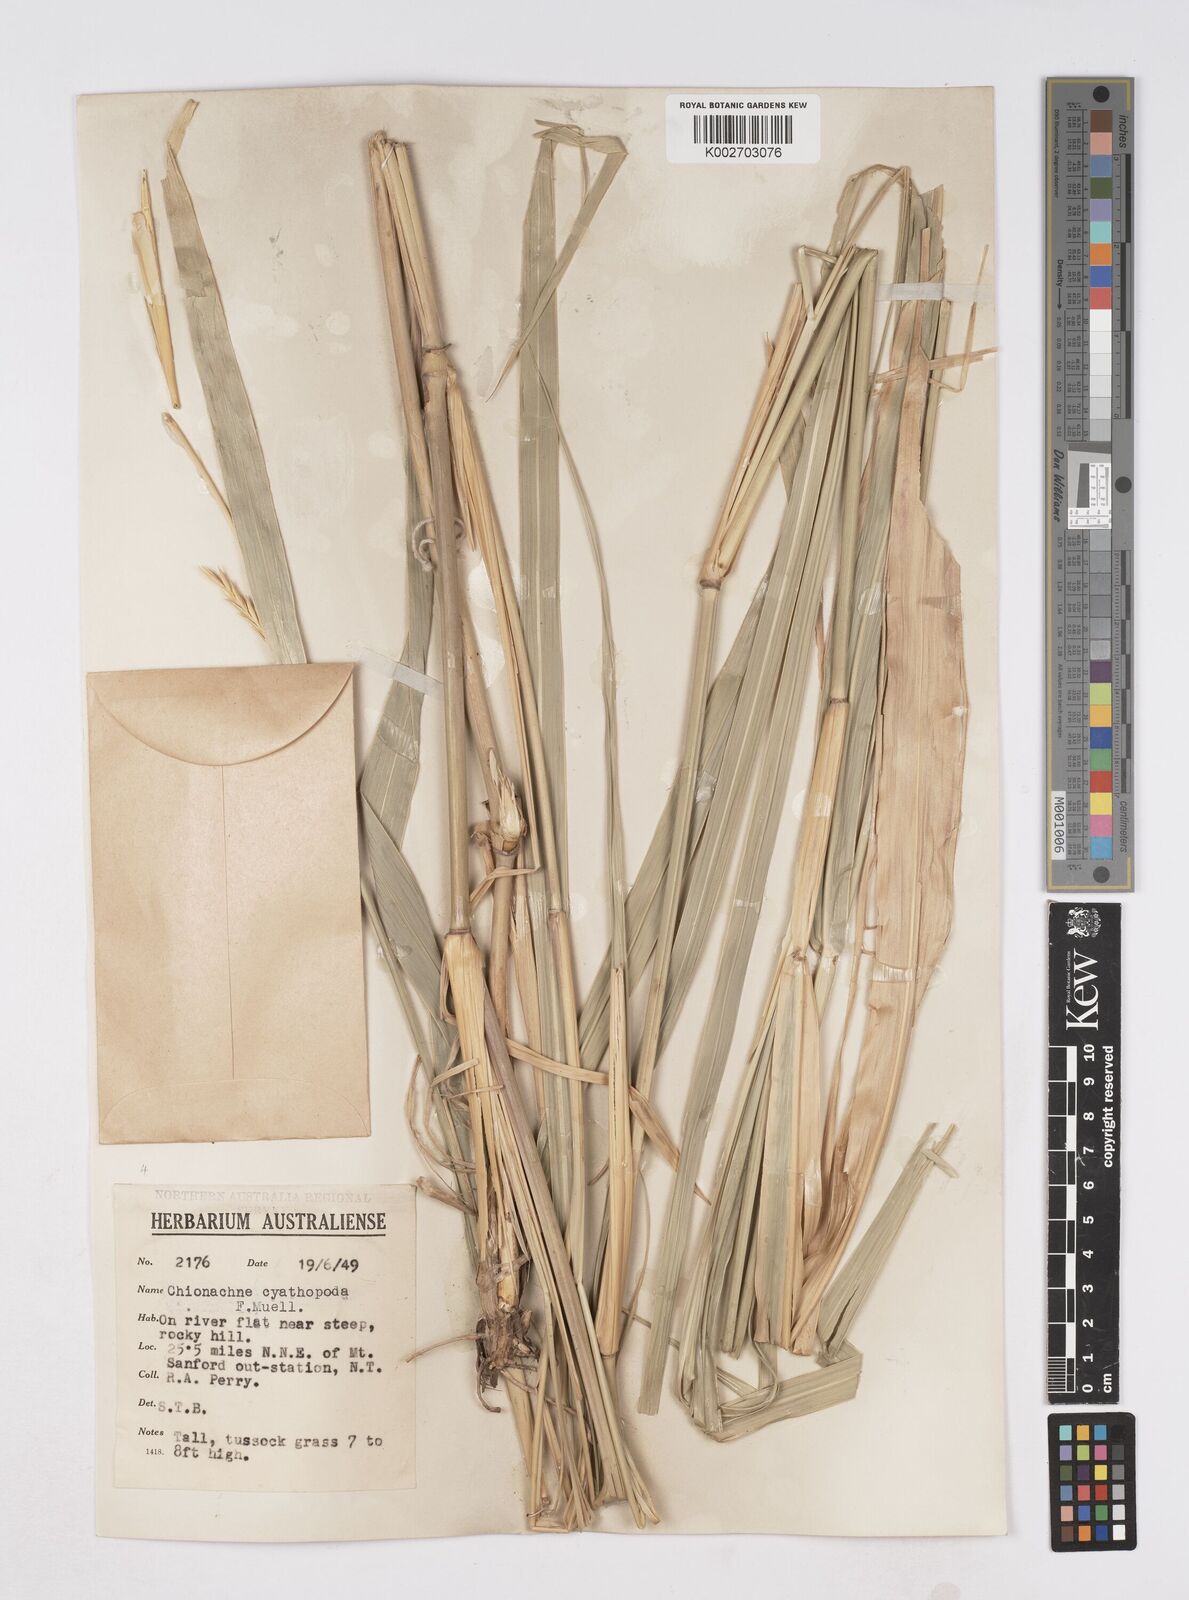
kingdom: Plantae
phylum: Tracheophyta
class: Liliopsida
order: Poales
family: Poaceae
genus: Polytoca
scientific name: Polytoca cyathopoda
